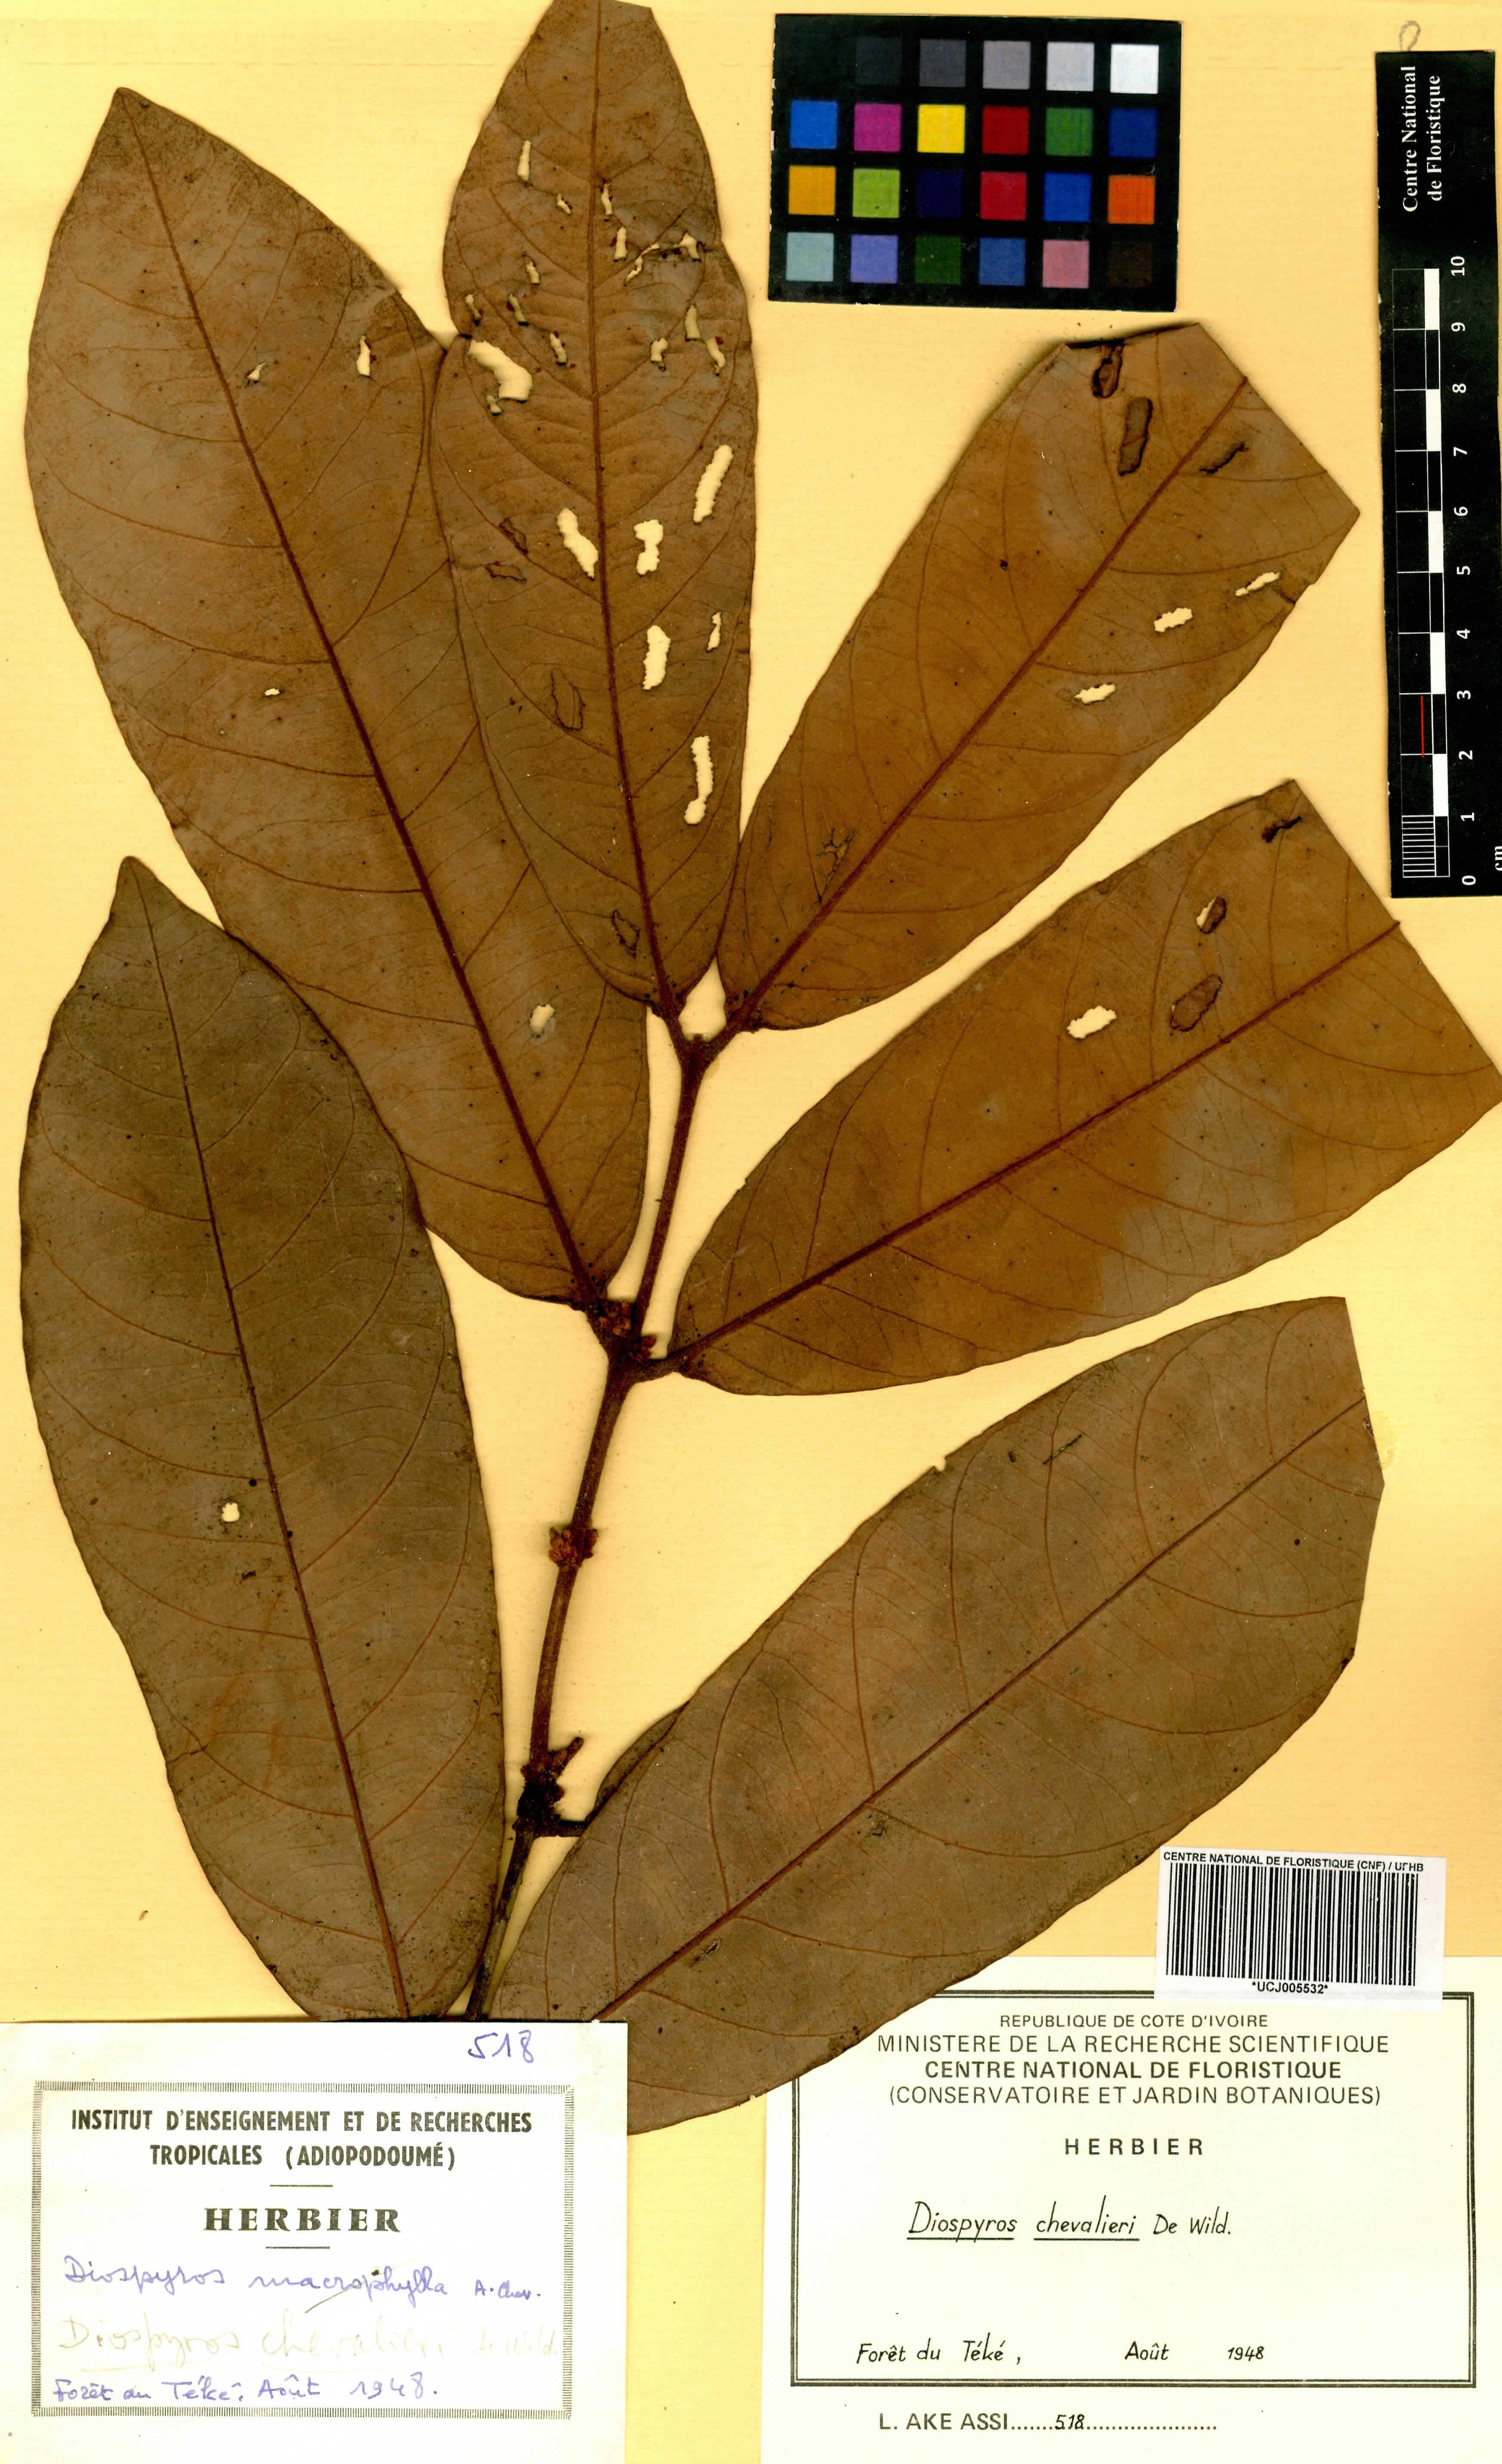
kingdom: Plantae
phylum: Tracheophyta
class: Magnoliopsida
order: Ericales
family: Ebenaceae
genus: Diospyros
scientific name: Diospyros chevalieri
